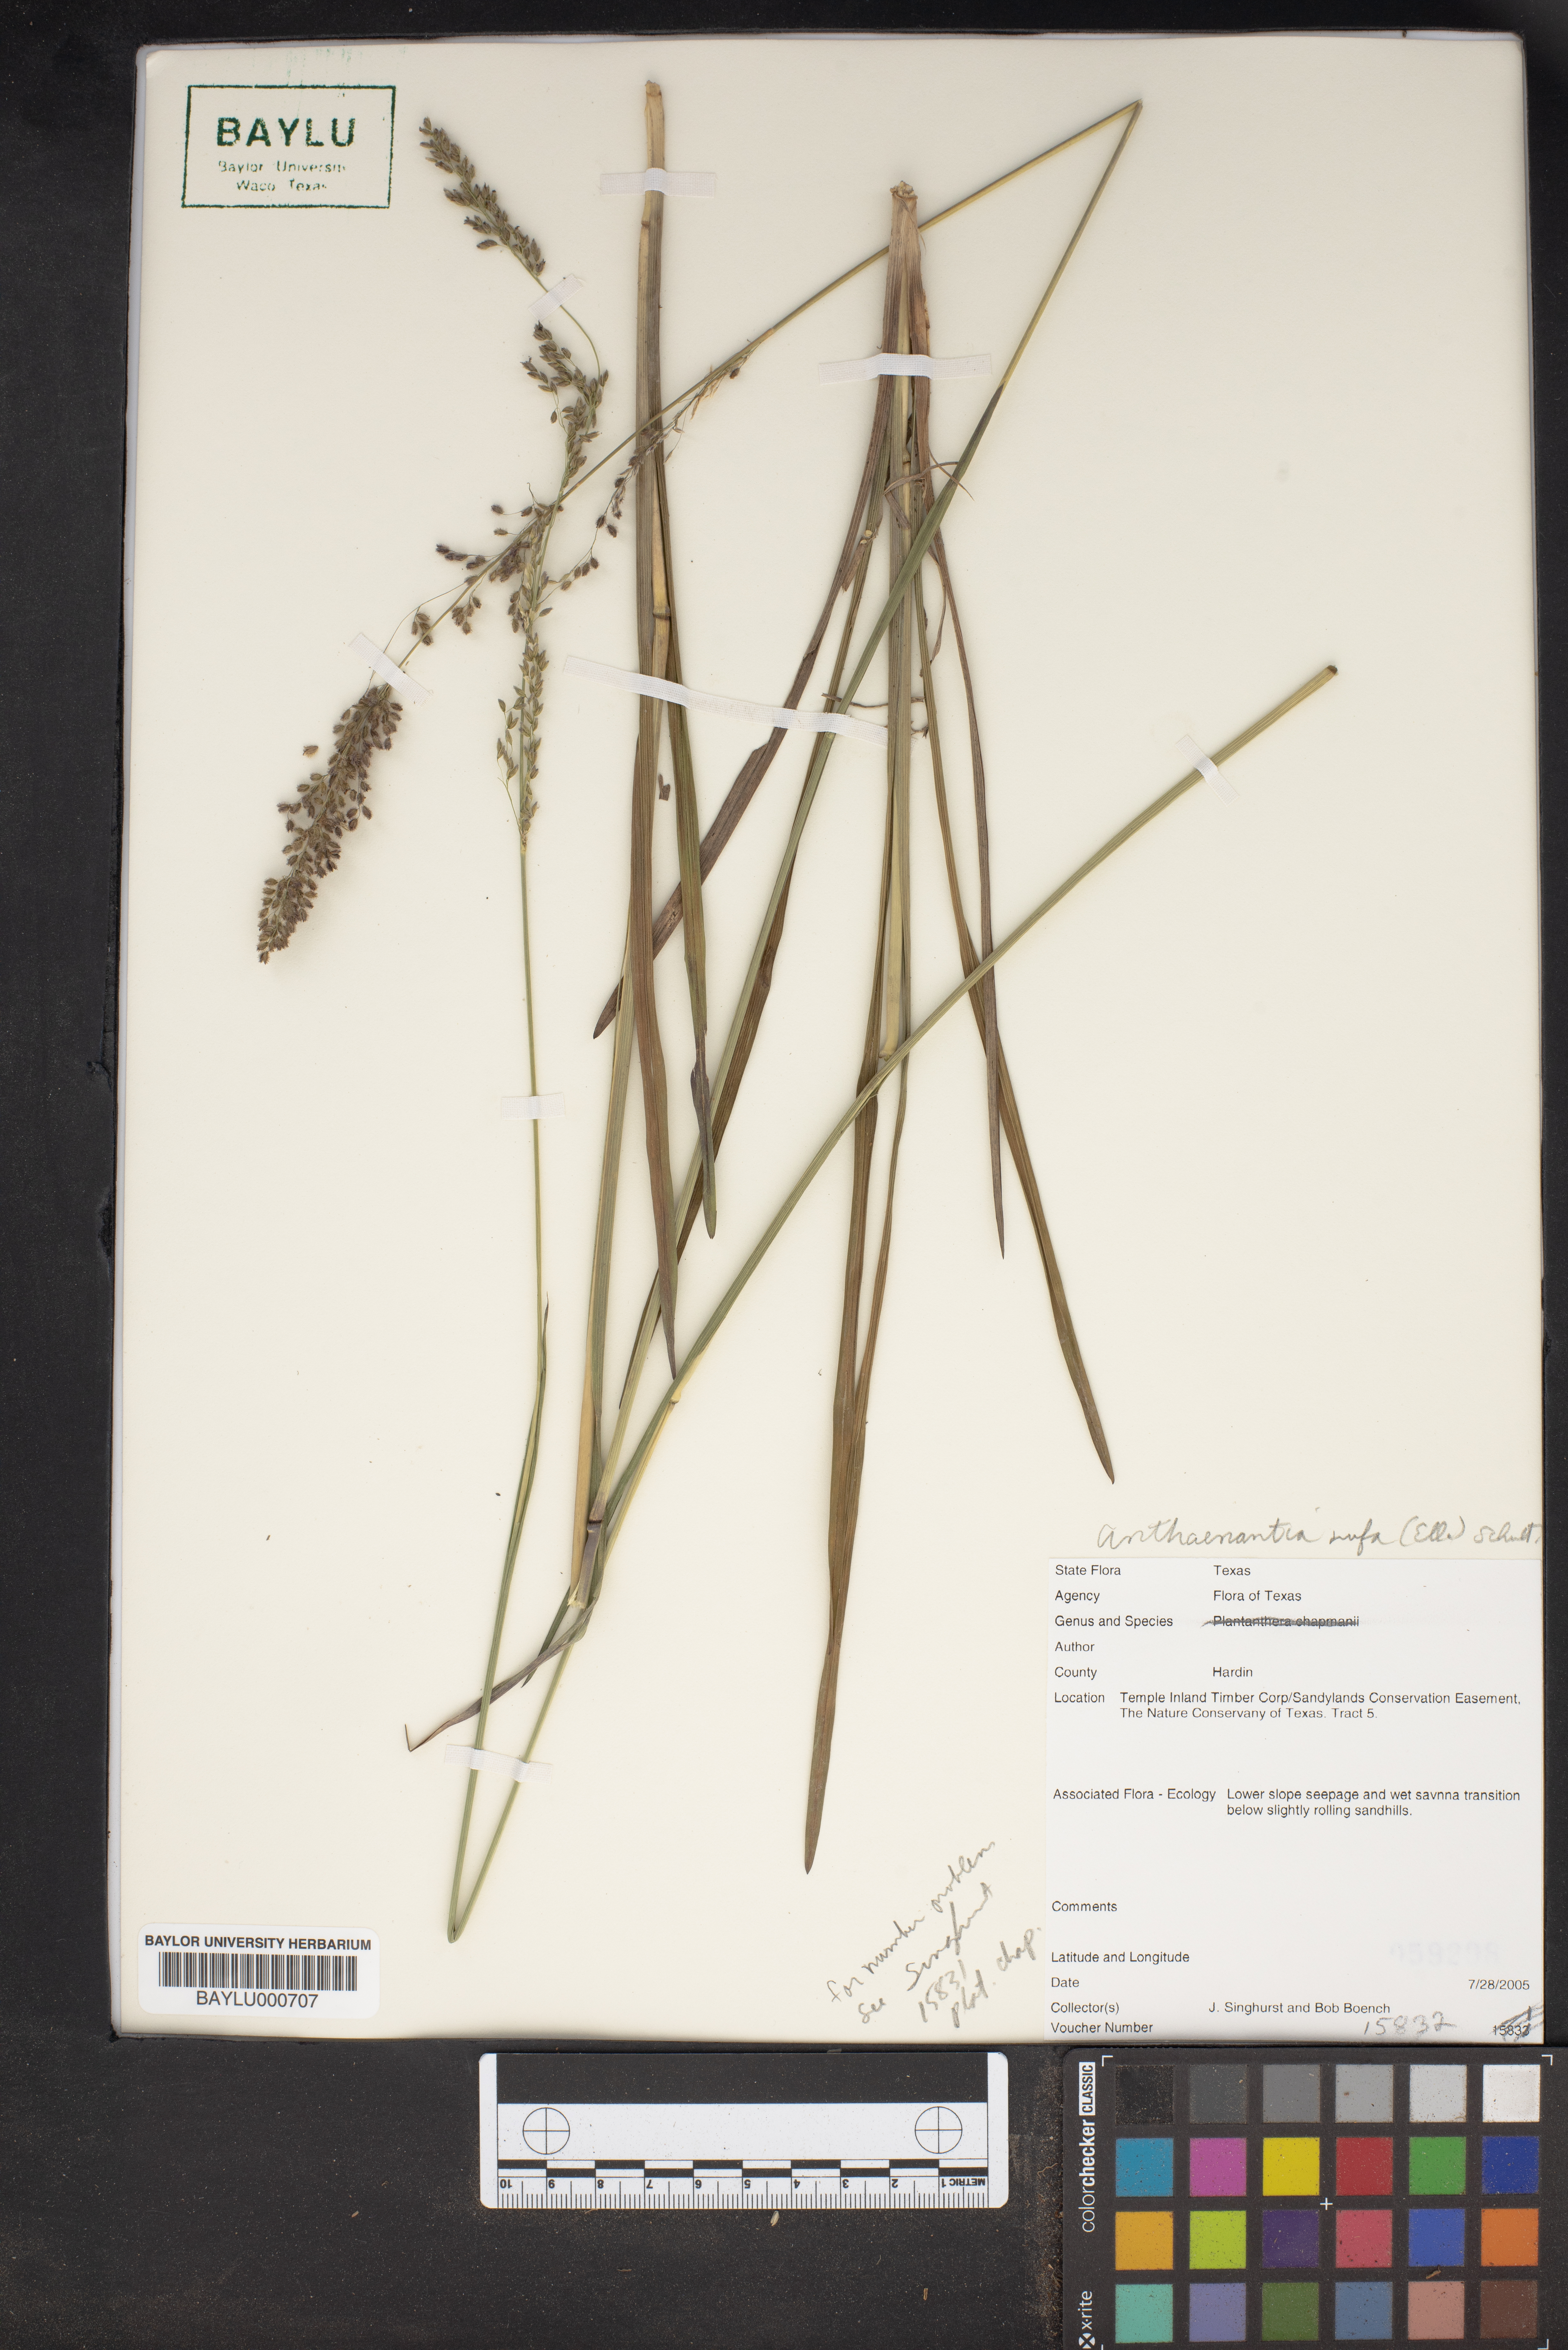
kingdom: Plantae
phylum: Tracheophyta
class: Liliopsida
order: Poales
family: Poaceae
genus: Anthenantia
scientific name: Anthenantia rufa
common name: Purple silkyscale
